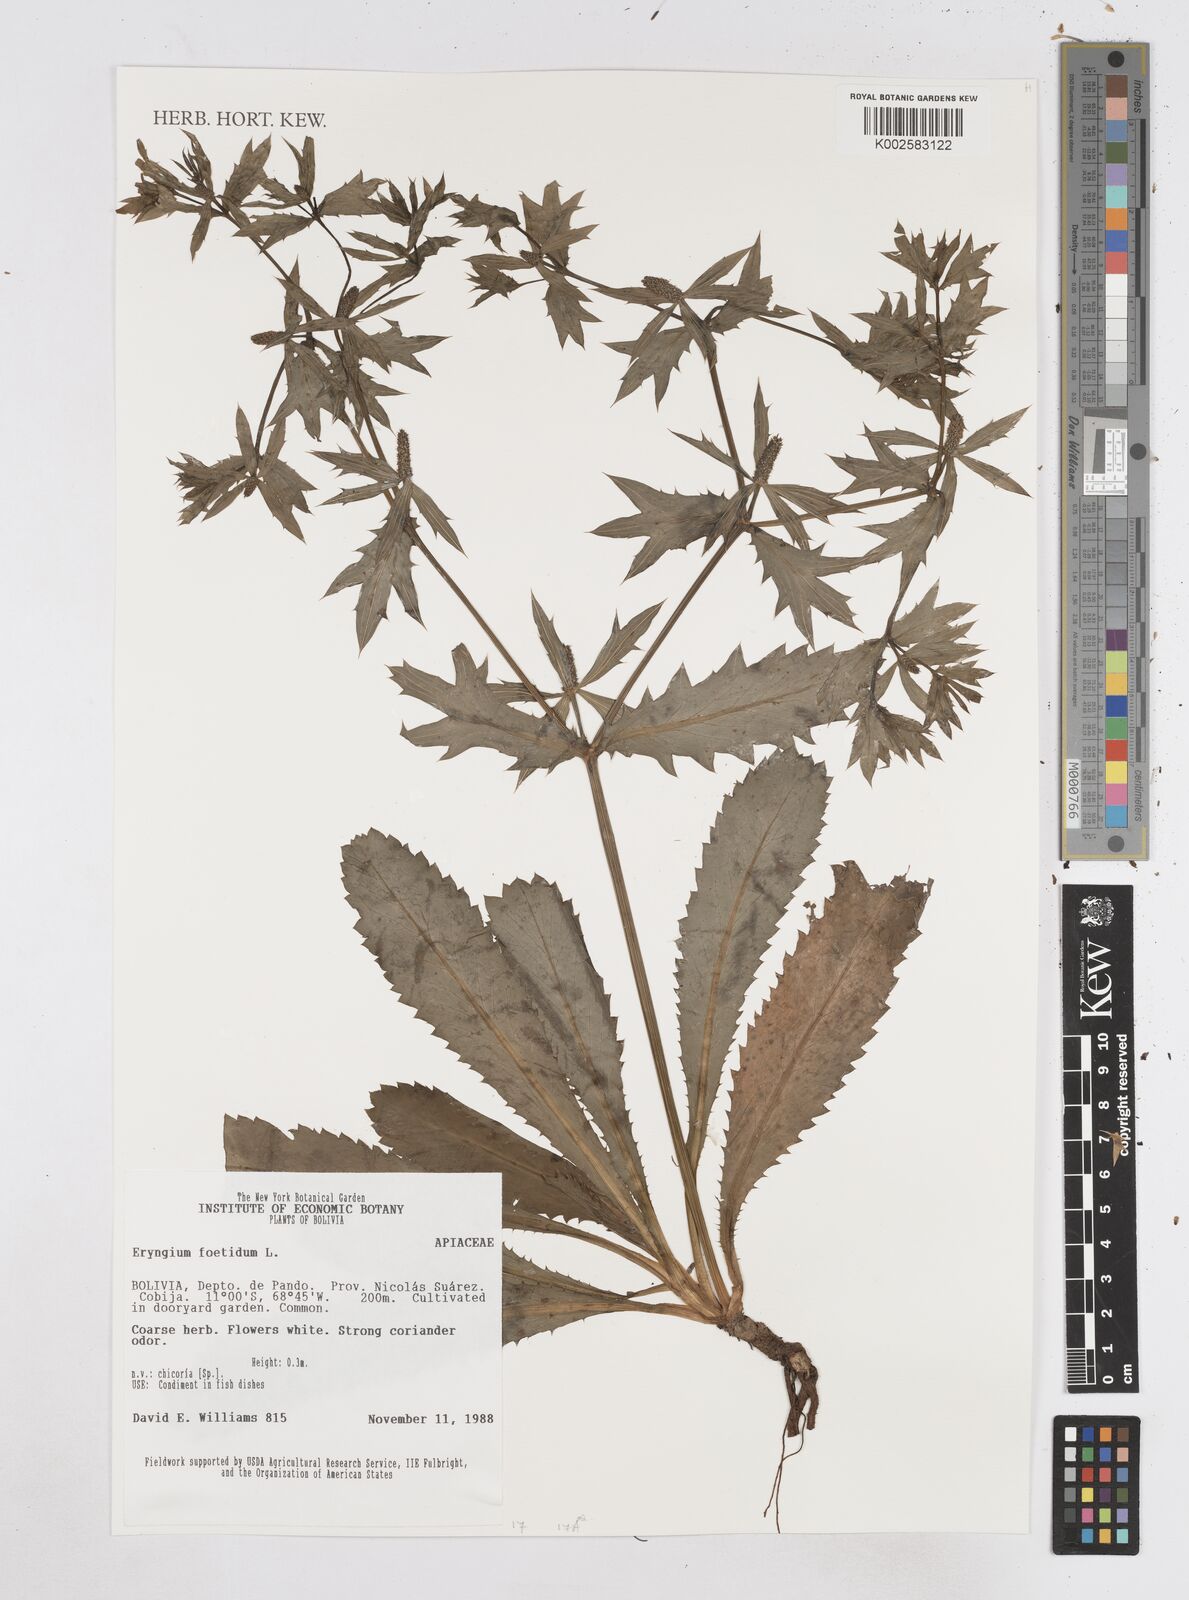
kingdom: Plantae
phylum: Tracheophyta
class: Magnoliopsida
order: Apiales
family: Apiaceae
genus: Eryngium
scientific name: Eryngium foetidum
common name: Fitweed
